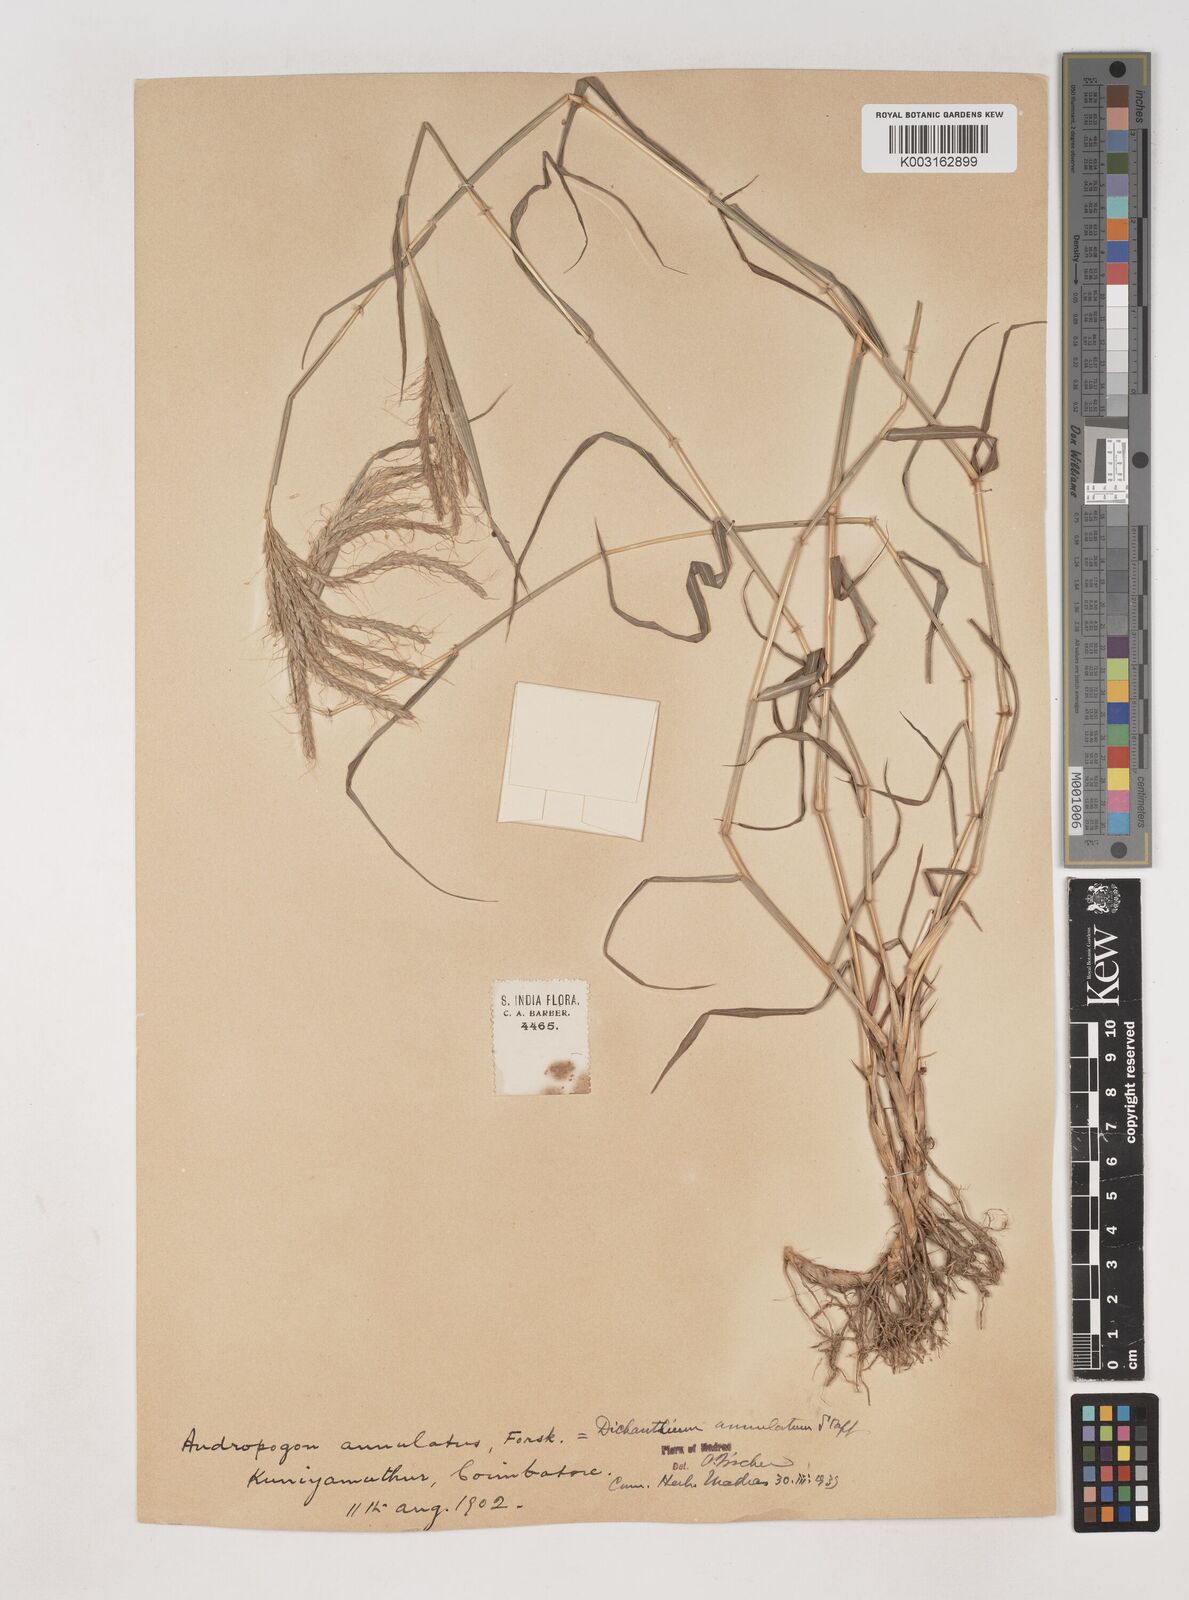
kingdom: Plantae
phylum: Tracheophyta
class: Liliopsida
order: Poales
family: Poaceae
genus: Dichanthium
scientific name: Dichanthium annulatum
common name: Kleberg's bluestem
